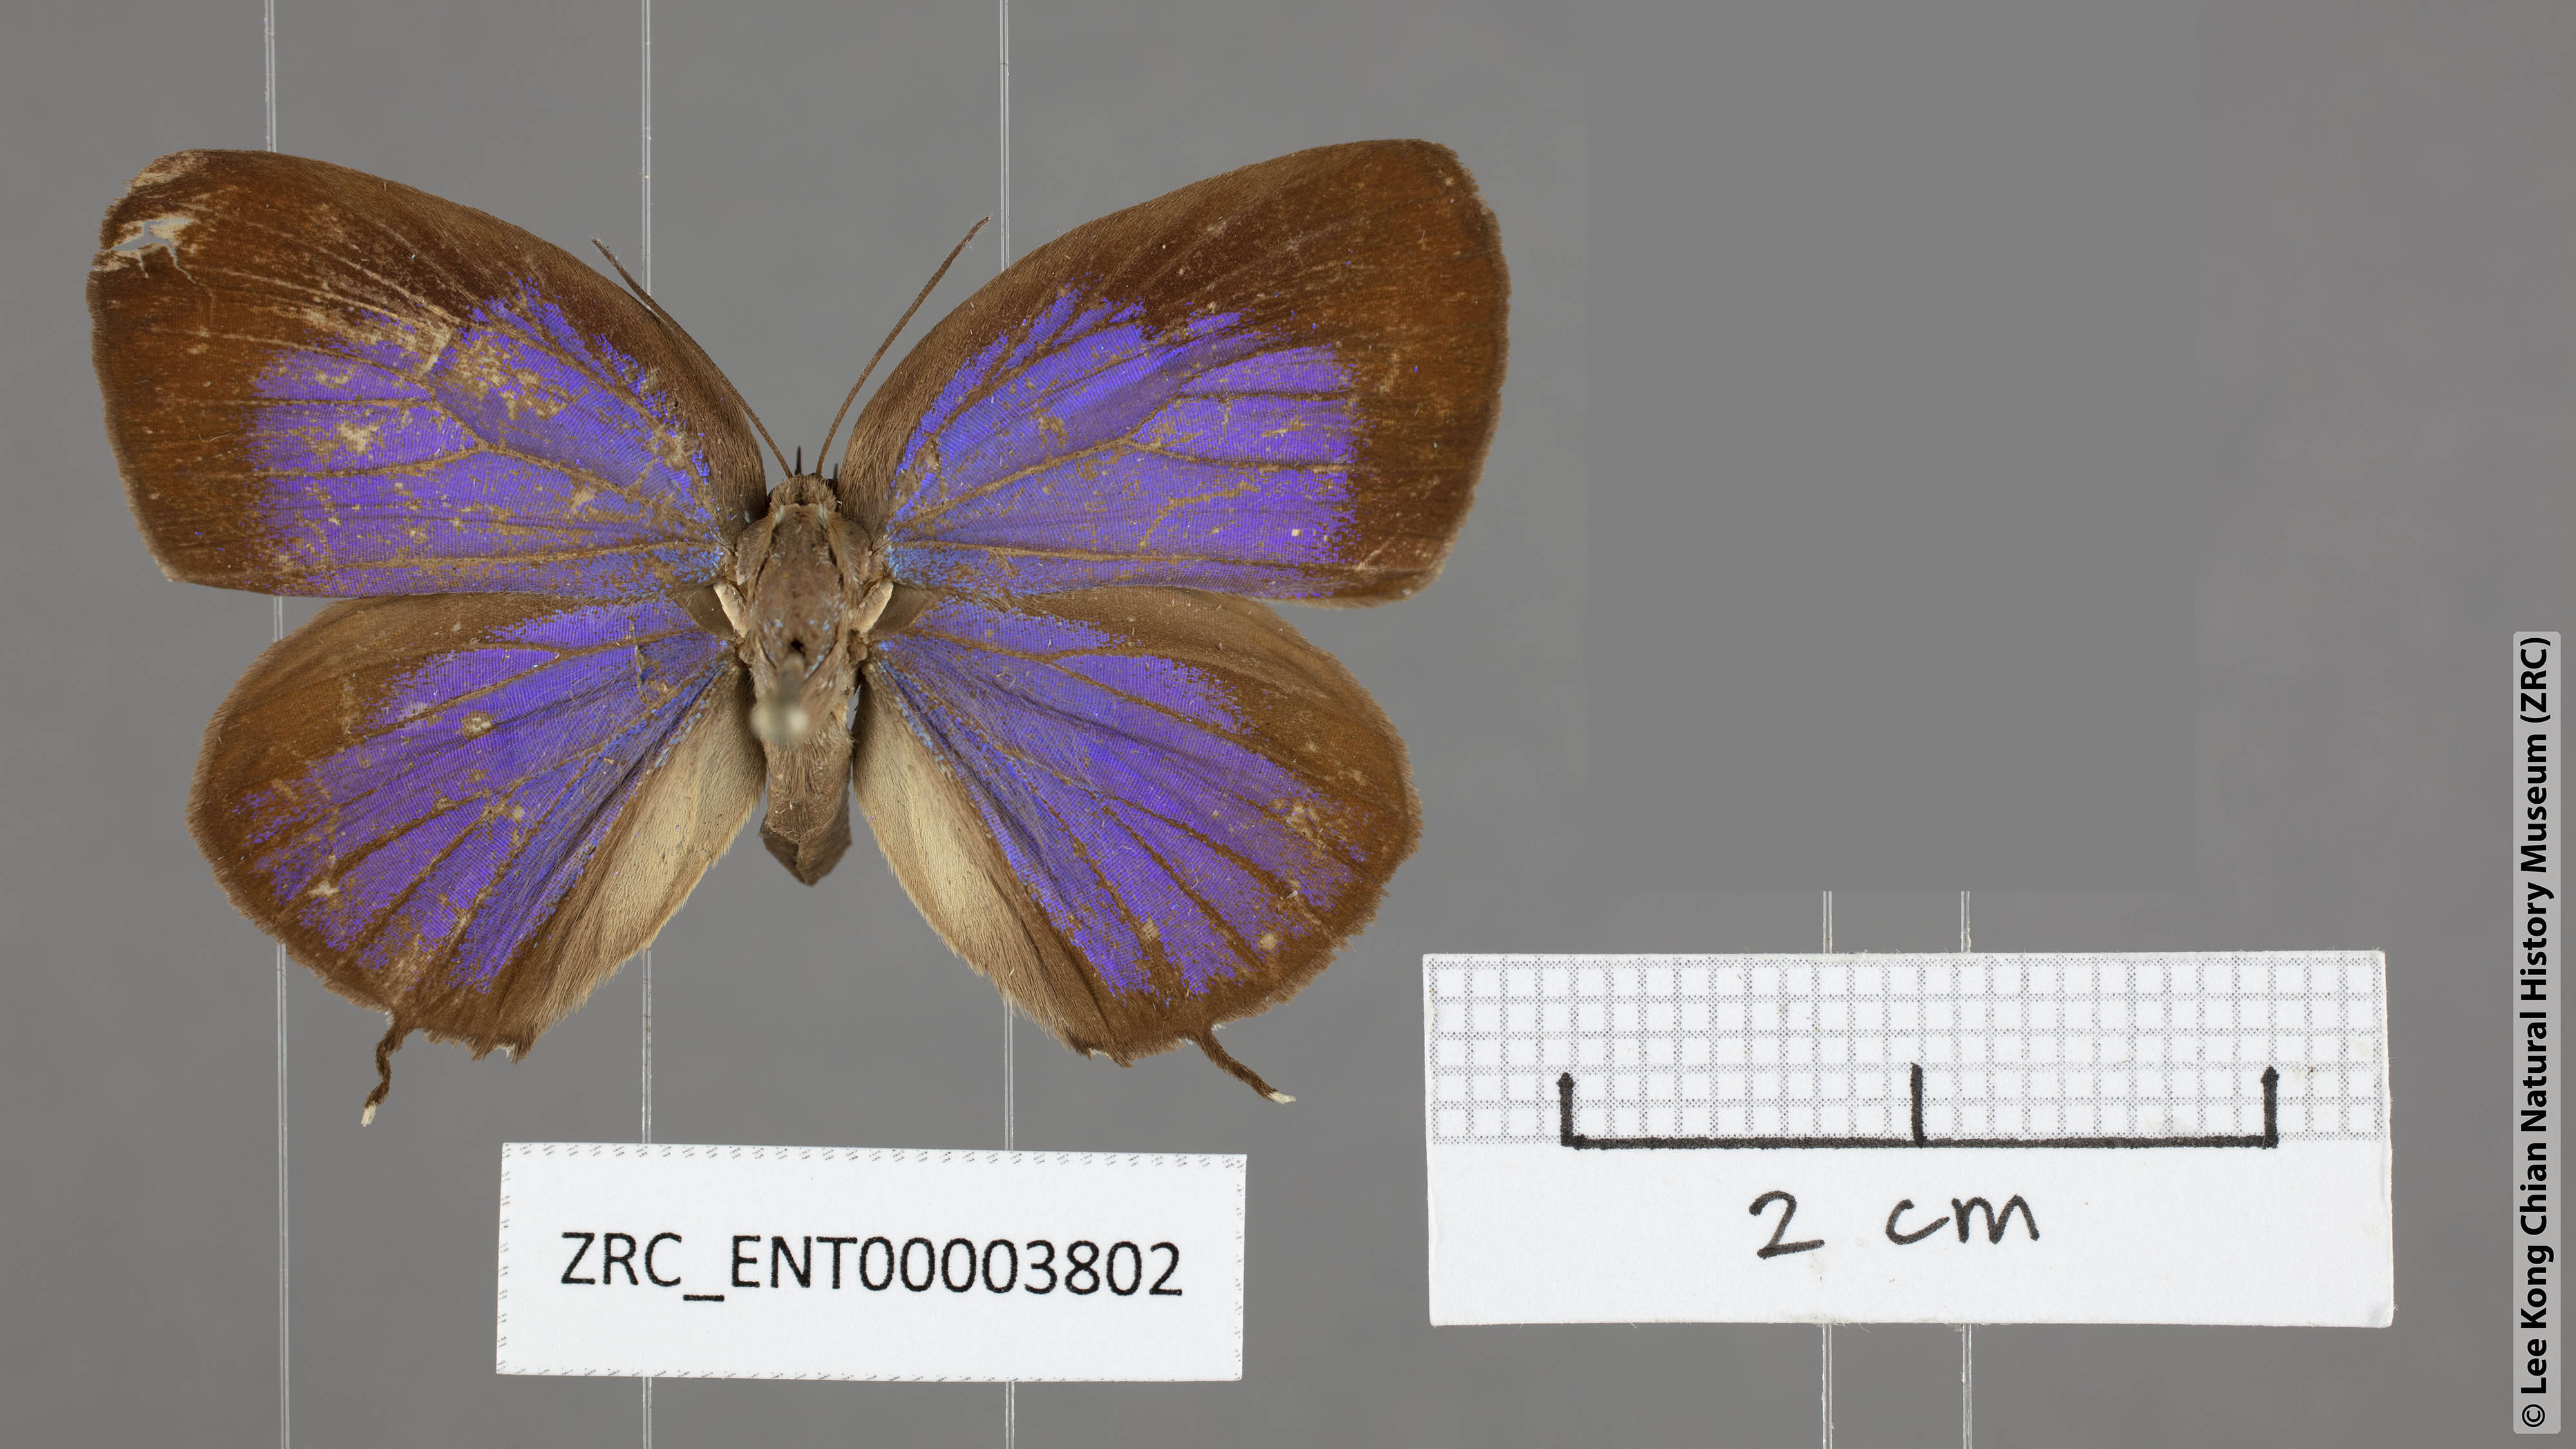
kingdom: Animalia
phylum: Arthropoda
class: Insecta
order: Lepidoptera
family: Lycaenidae
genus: Arhopala
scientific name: Arhopala
